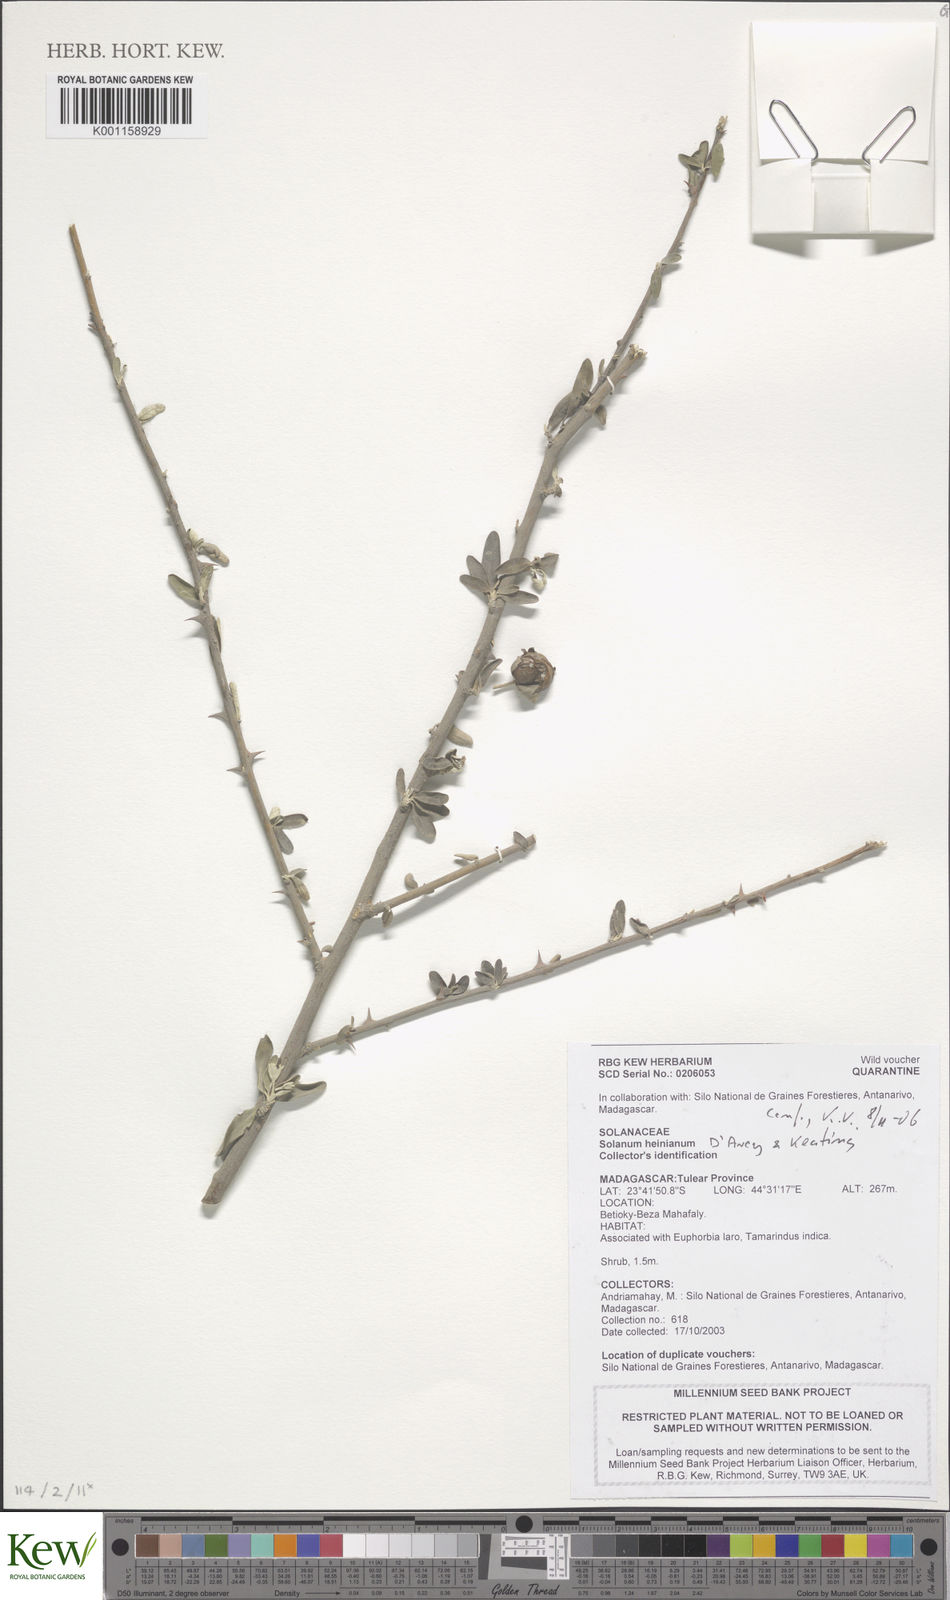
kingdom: Plantae
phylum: Tracheophyta
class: Magnoliopsida
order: Solanales
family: Solanaceae
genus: Solanum
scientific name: Solanum heinianum
